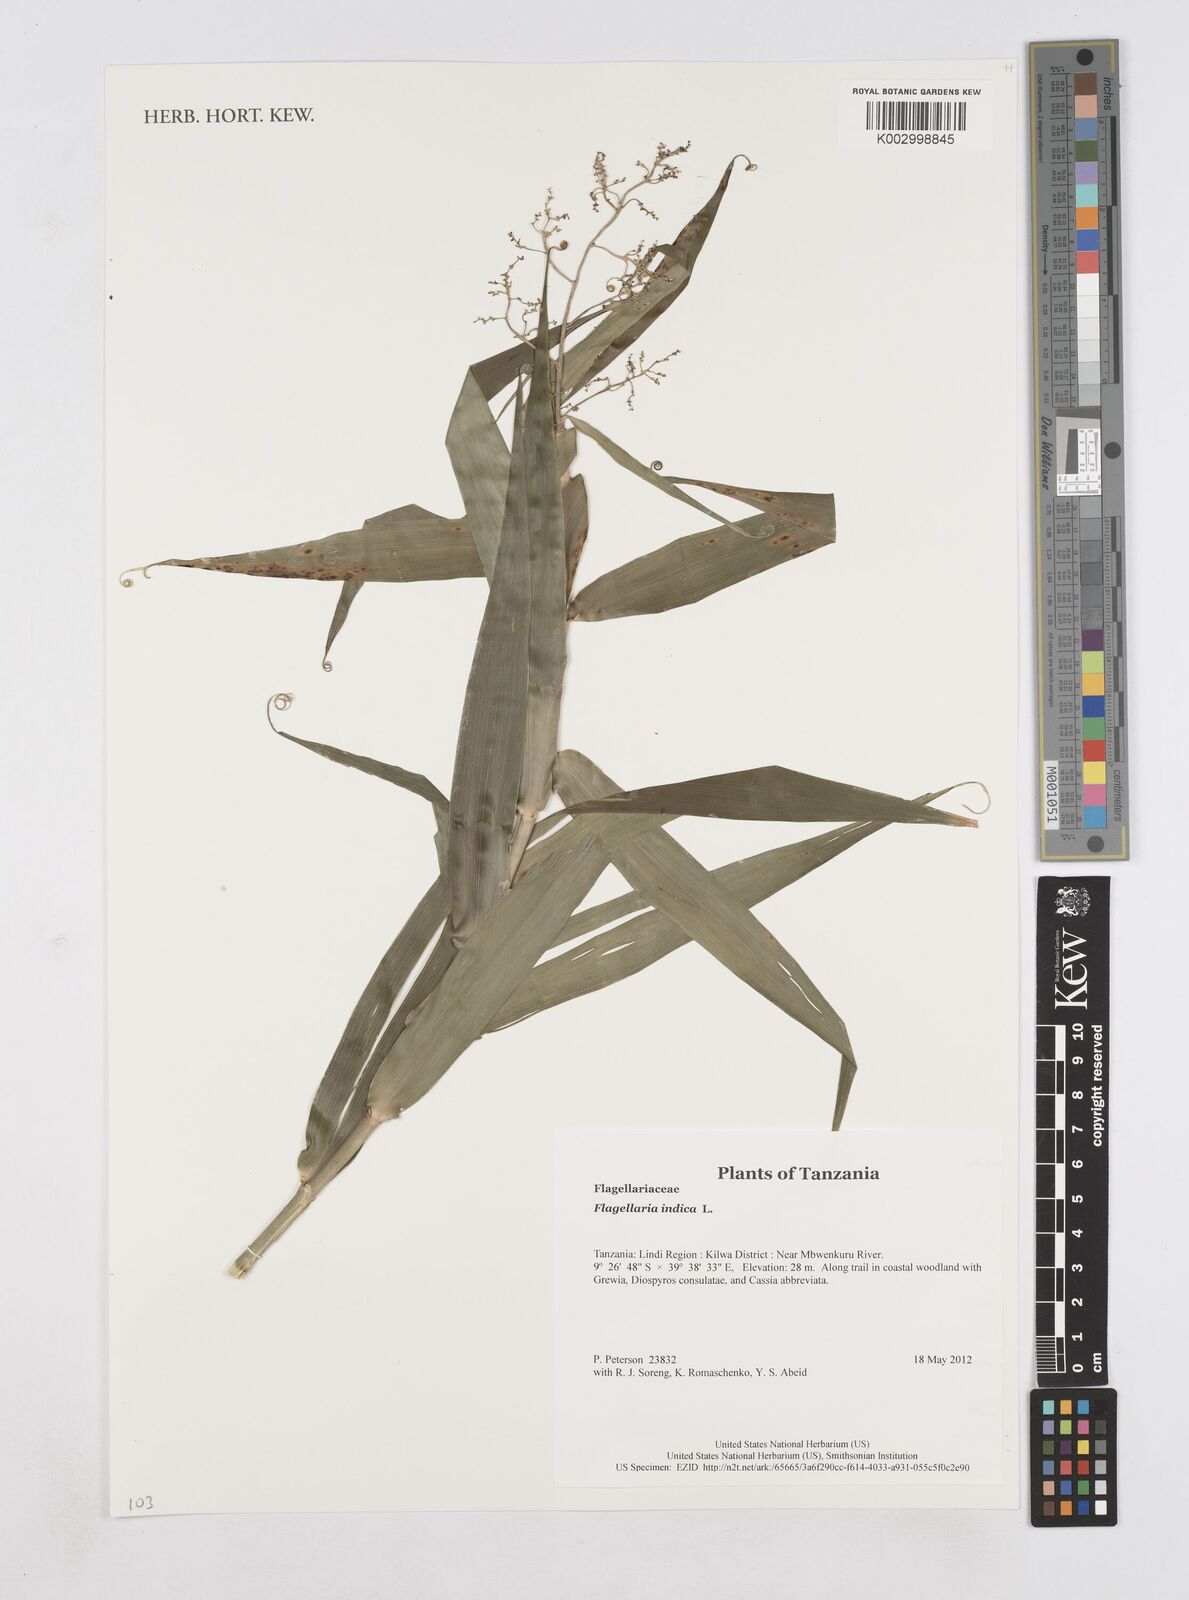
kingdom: Plantae
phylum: Tracheophyta
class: Liliopsida
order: Poales
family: Flagellariaceae
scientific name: Flagellariaceae
